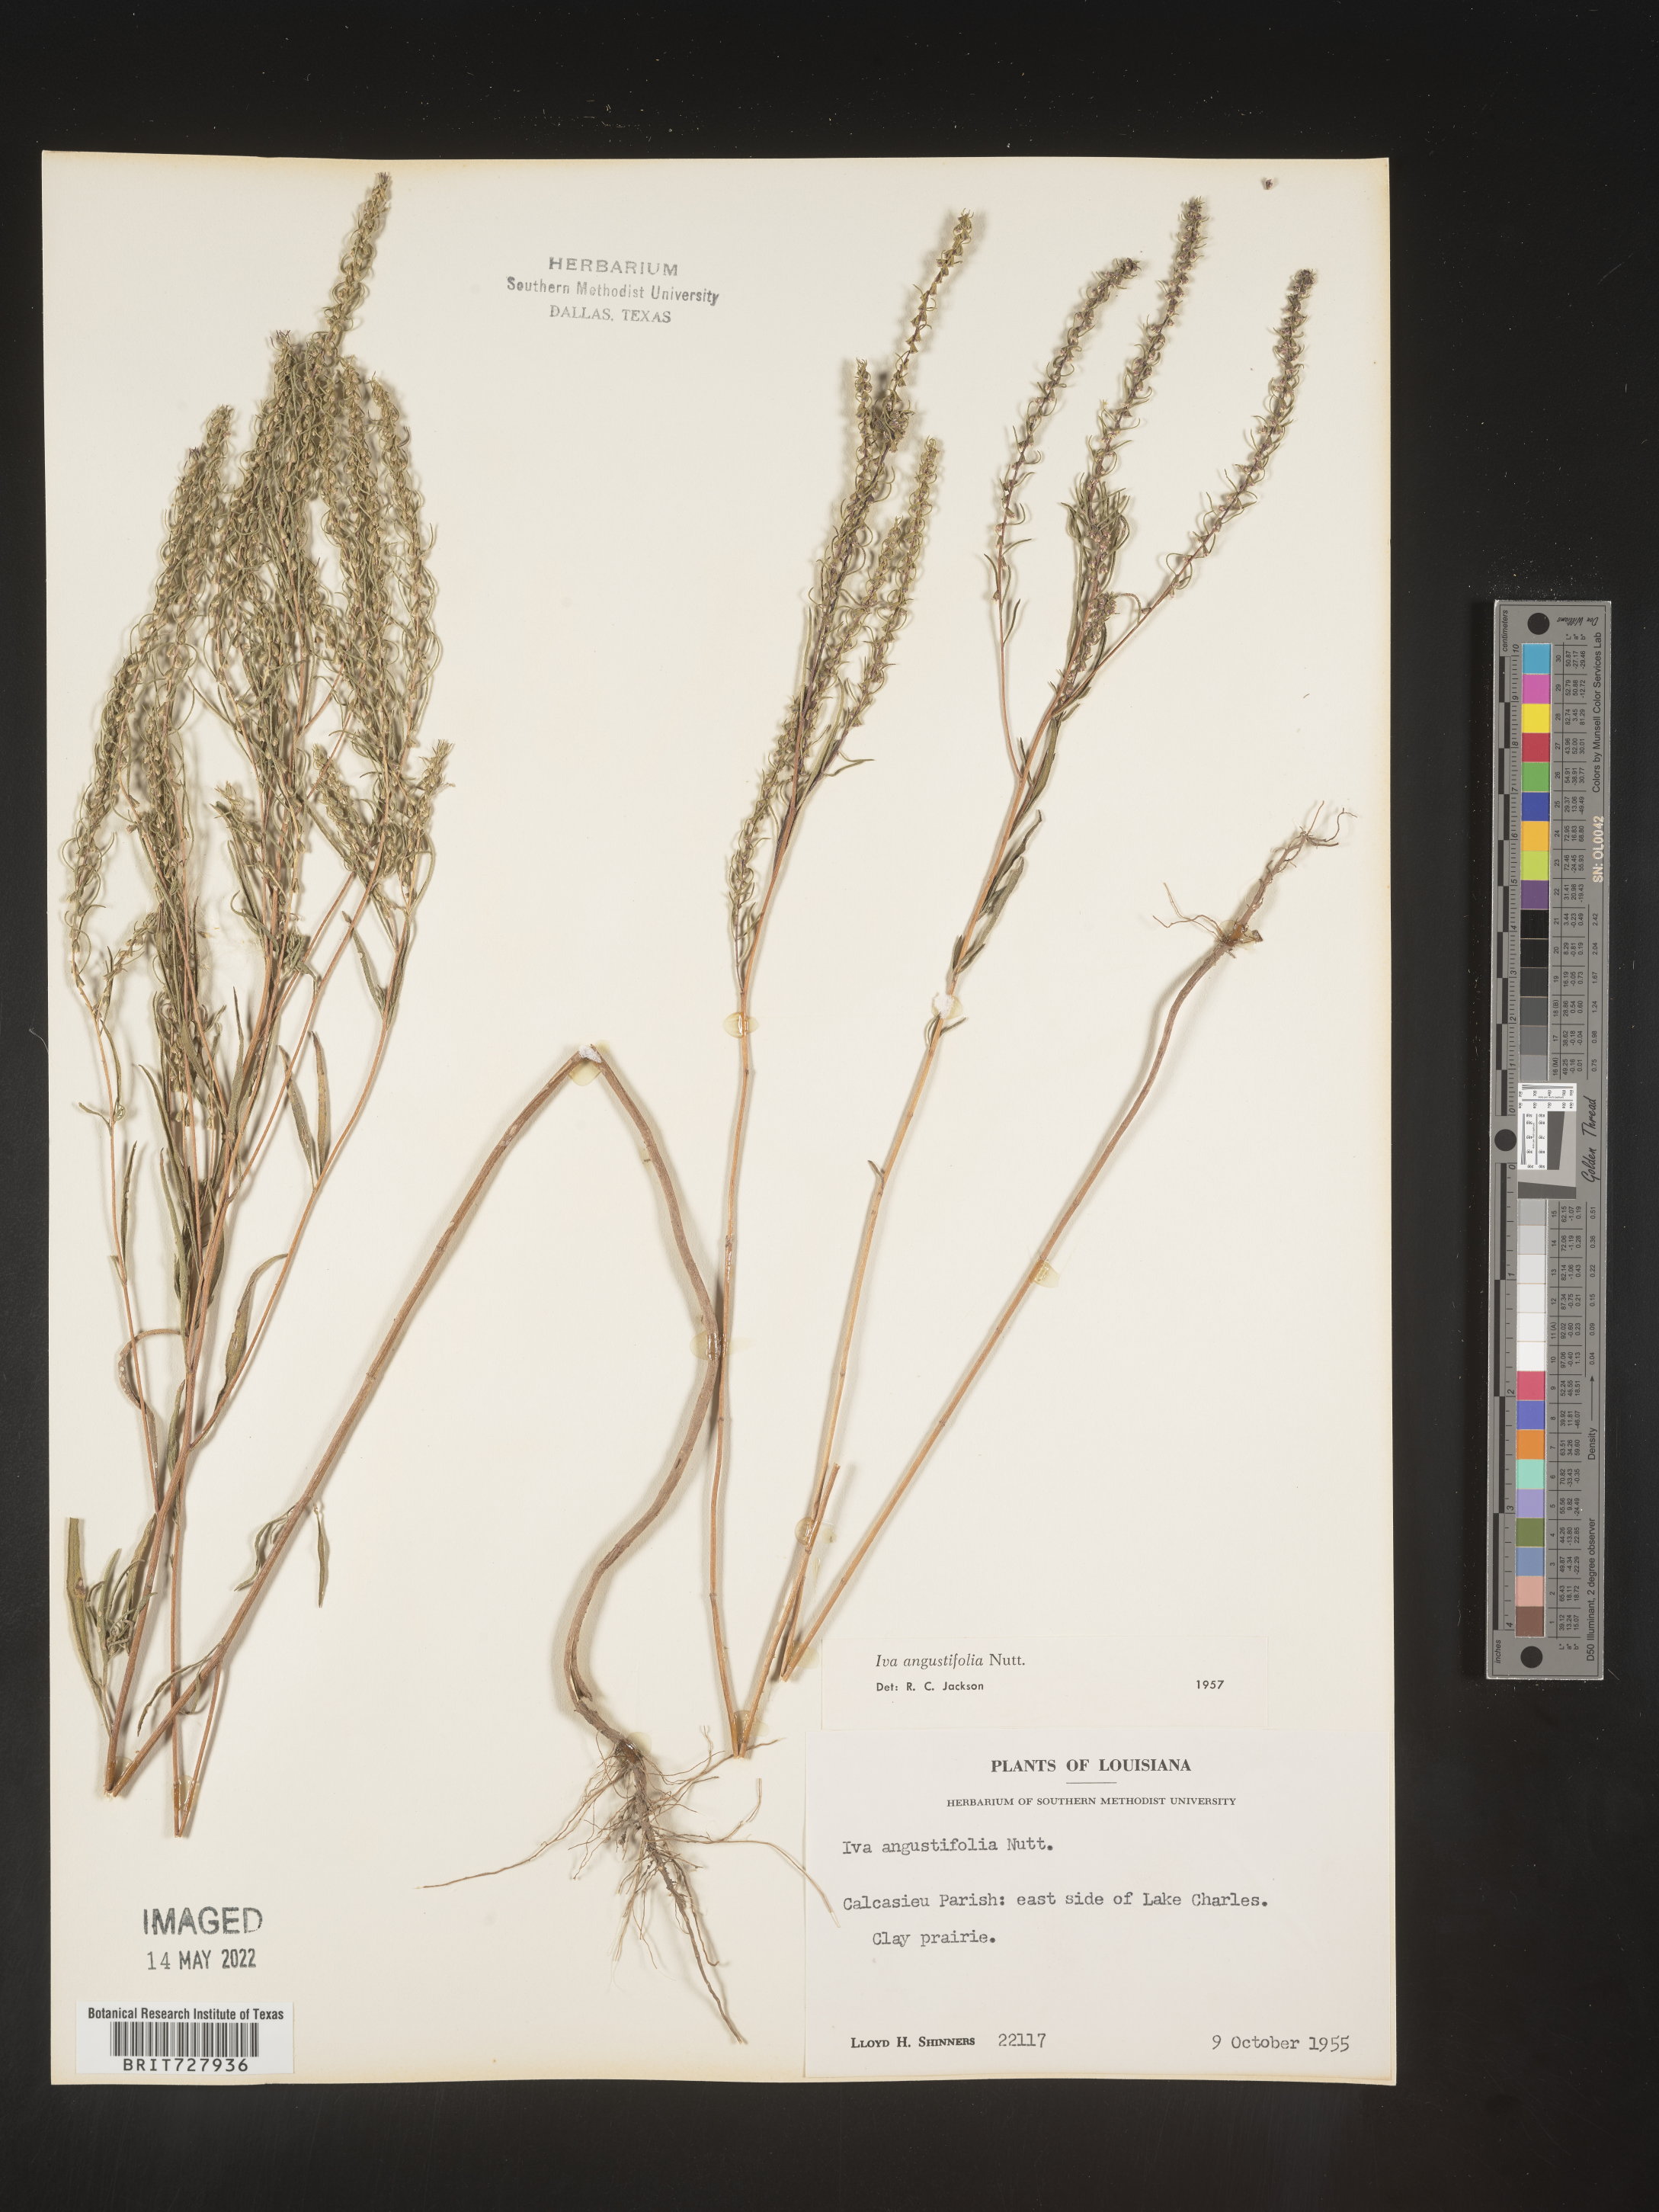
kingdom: Plantae
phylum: Tracheophyta
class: Magnoliopsida
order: Asterales
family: Asteraceae
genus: Iva
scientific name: Iva asperifolia
